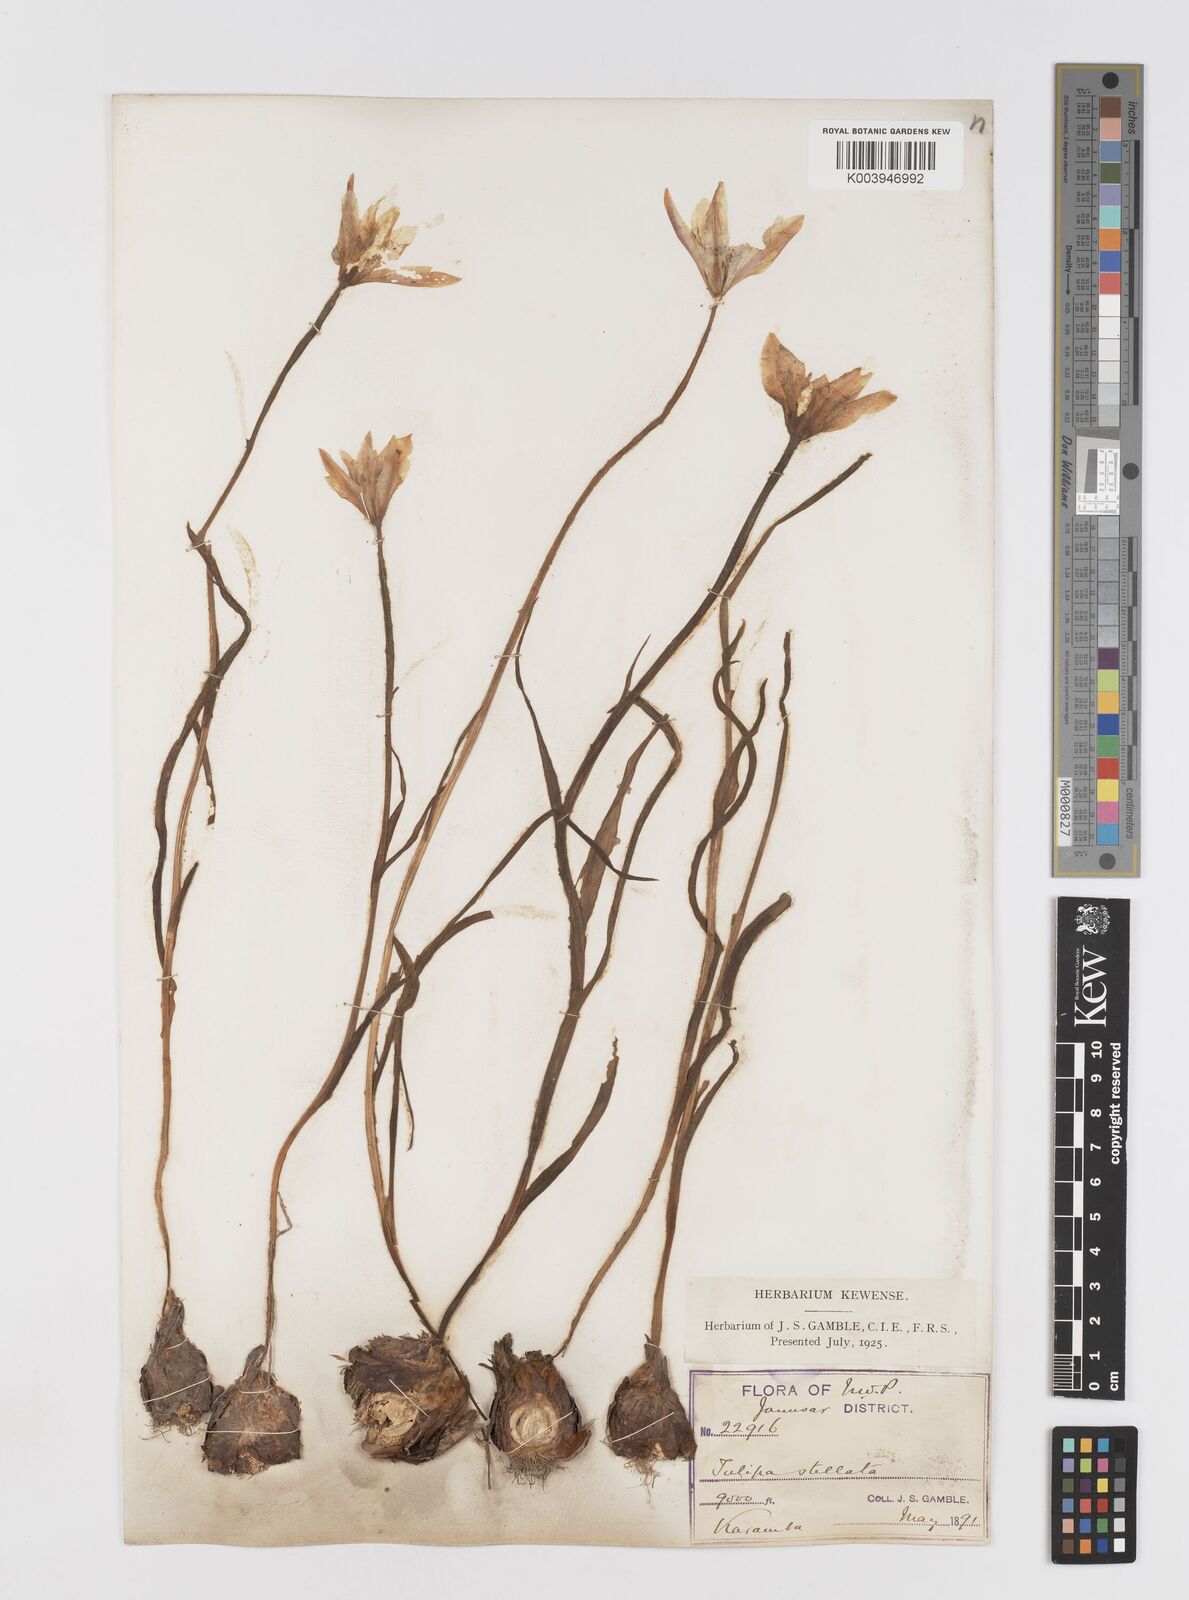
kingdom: Plantae
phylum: Tracheophyta
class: Liliopsida
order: Liliales
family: Liliaceae
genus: Tulipa
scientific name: Tulipa clusiana
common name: Lady tulip
